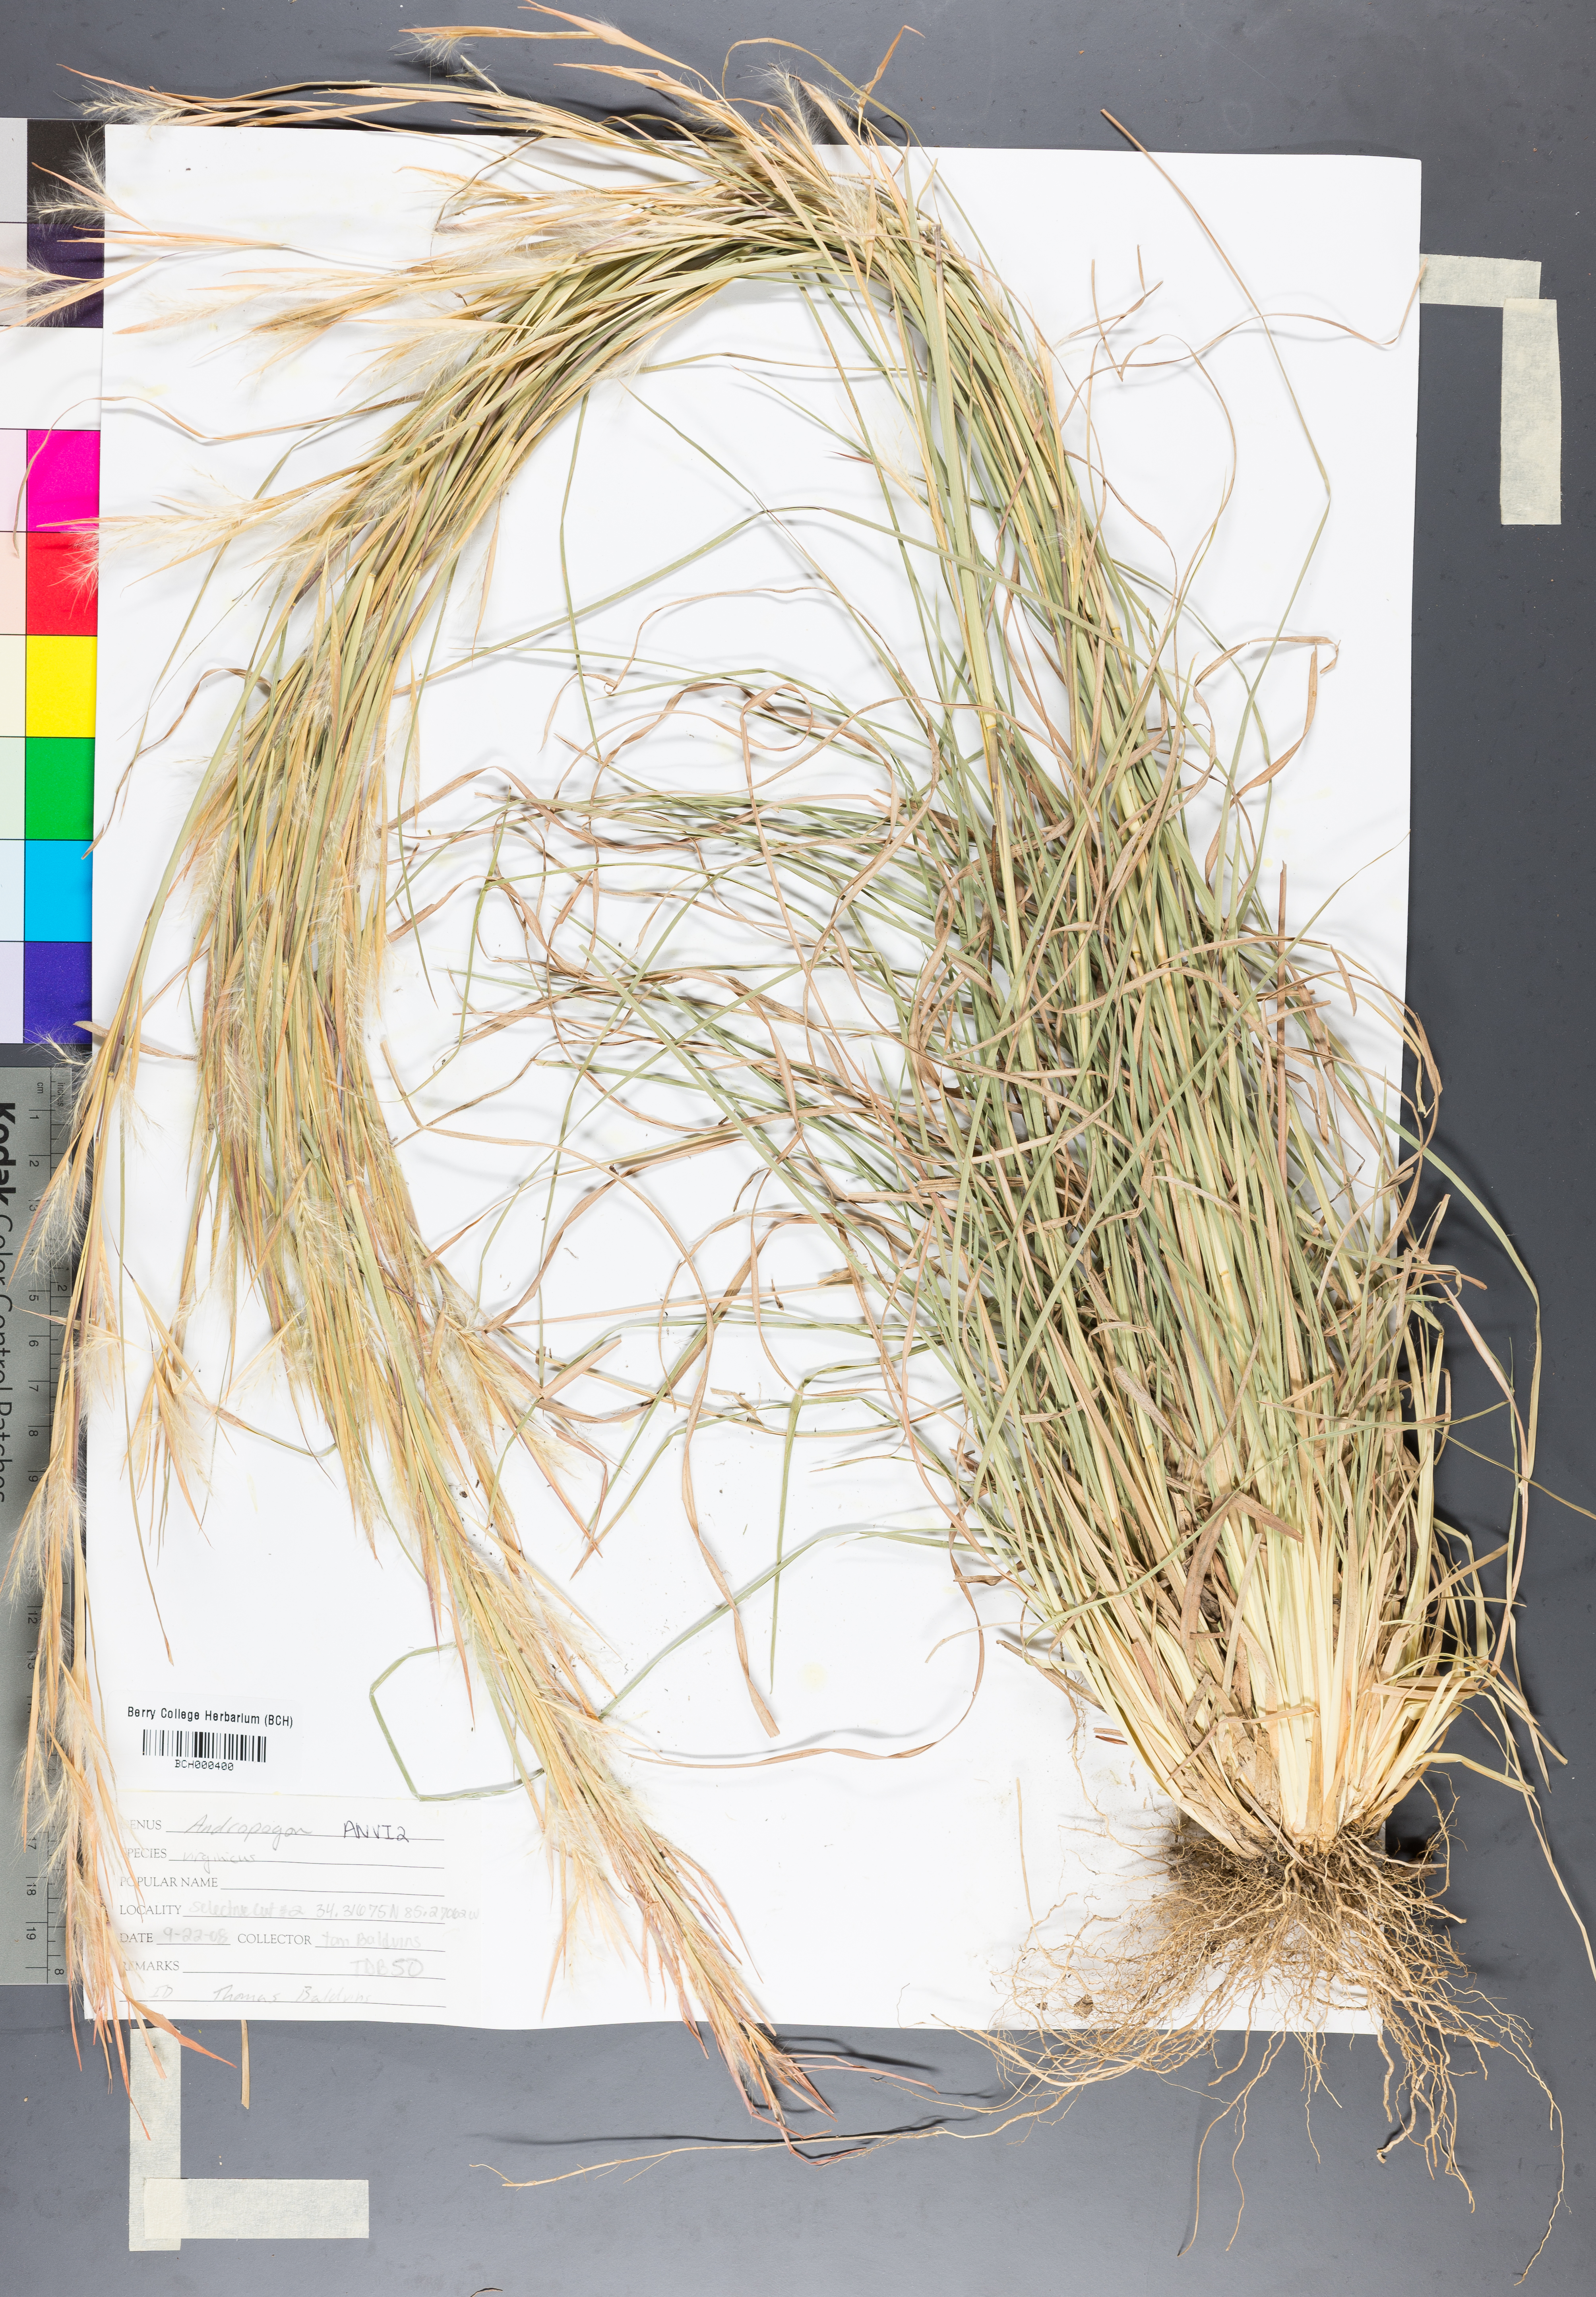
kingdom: Plantae
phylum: Tracheophyta
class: Liliopsida
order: Poales
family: Poaceae
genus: Andropogon
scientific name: Andropogon virginicus
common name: Broomsedge bluestem
